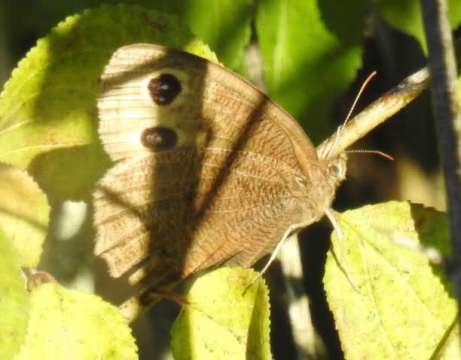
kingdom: Animalia
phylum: Arthropoda
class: Insecta
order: Lepidoptera
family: Nymphalidae
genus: Cercyonis
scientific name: Cercyonis pegala
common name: Common Wood-Nymph
